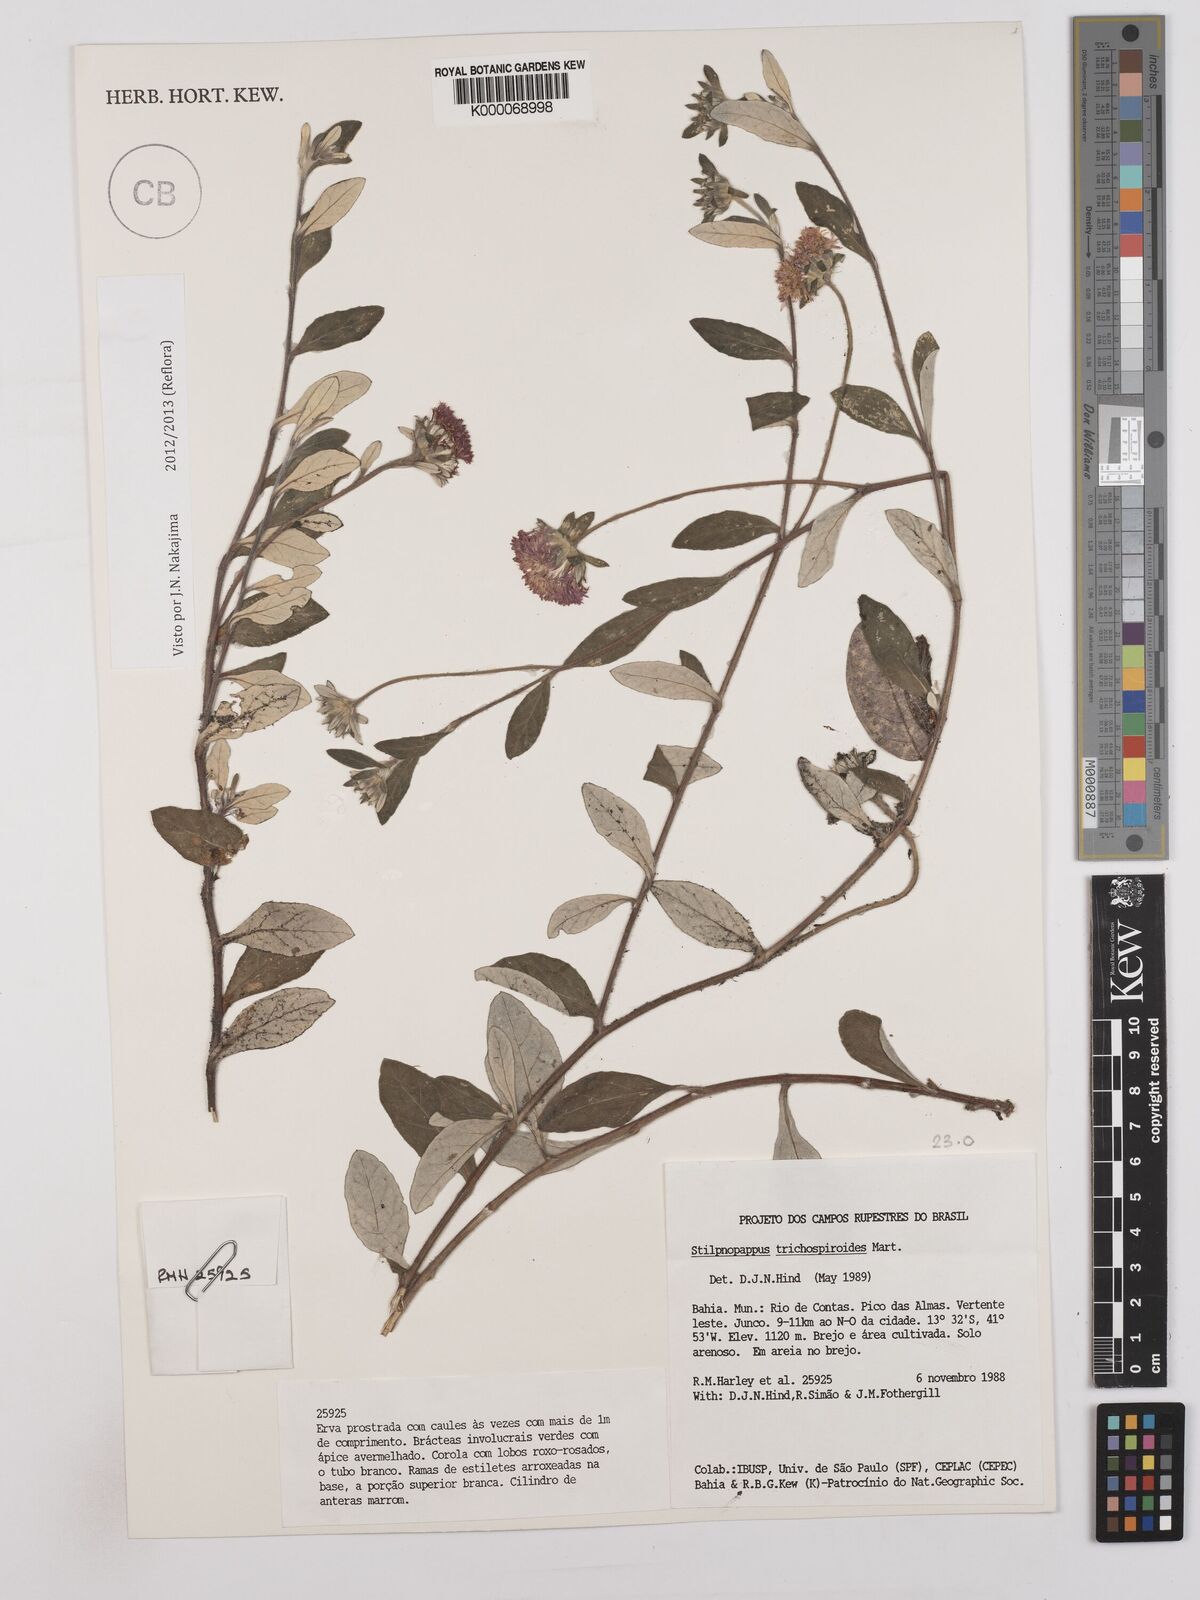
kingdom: Plantae
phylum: Tracheophyta
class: Magnoliopsida
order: Asterales
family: Asteraceae
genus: Stilpnopappus
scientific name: Stilpnopappus
